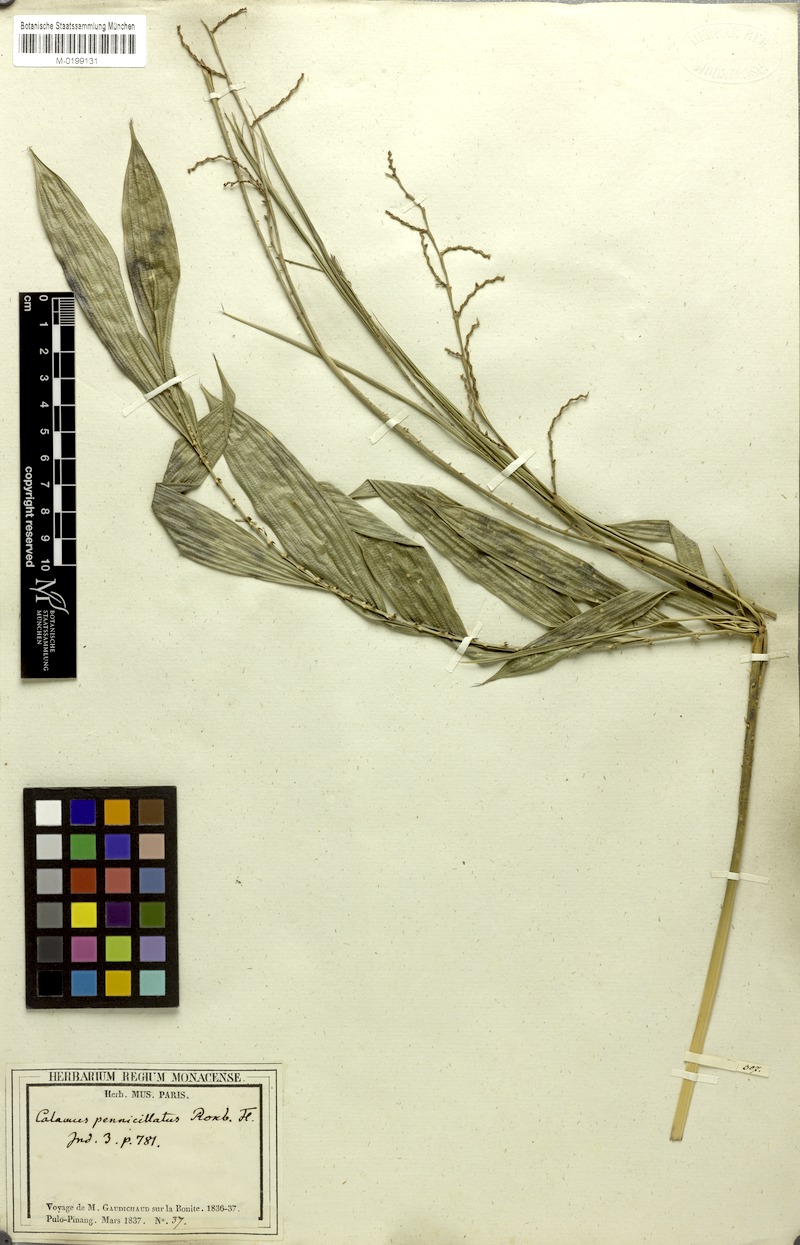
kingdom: Plantae
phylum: Tracheophyta
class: Liliopsida
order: Arecales
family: Arecaceae
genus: Calamus
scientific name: Calamus penicillatus
